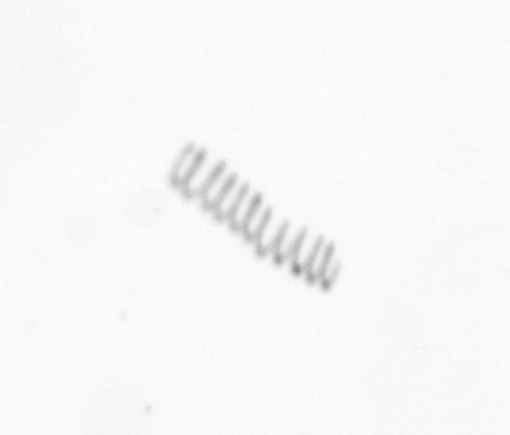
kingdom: Chromista
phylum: Ochrophyta
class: Bacillariophyceae
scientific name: Bacillariophyceae
